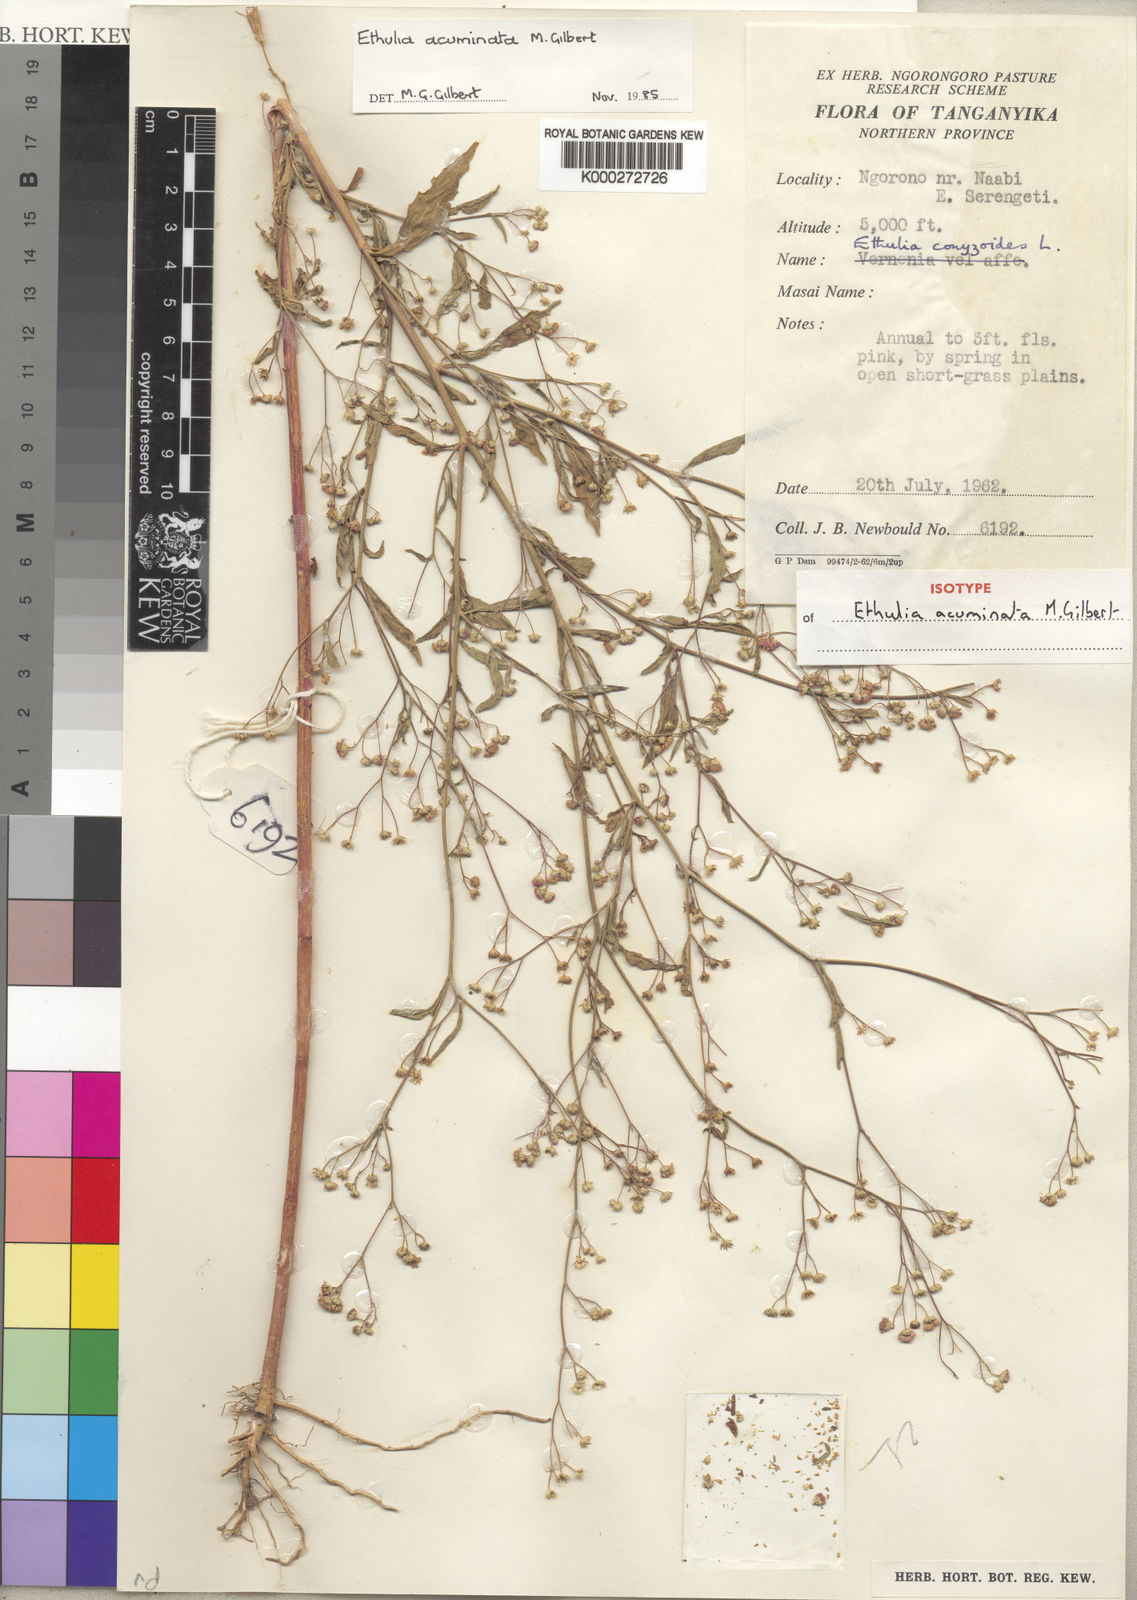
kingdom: Plantae
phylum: Tracheophyta
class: Magnoliopsida
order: Asterales
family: Asteraceae
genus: Ethulia
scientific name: Ethulia acuminata
